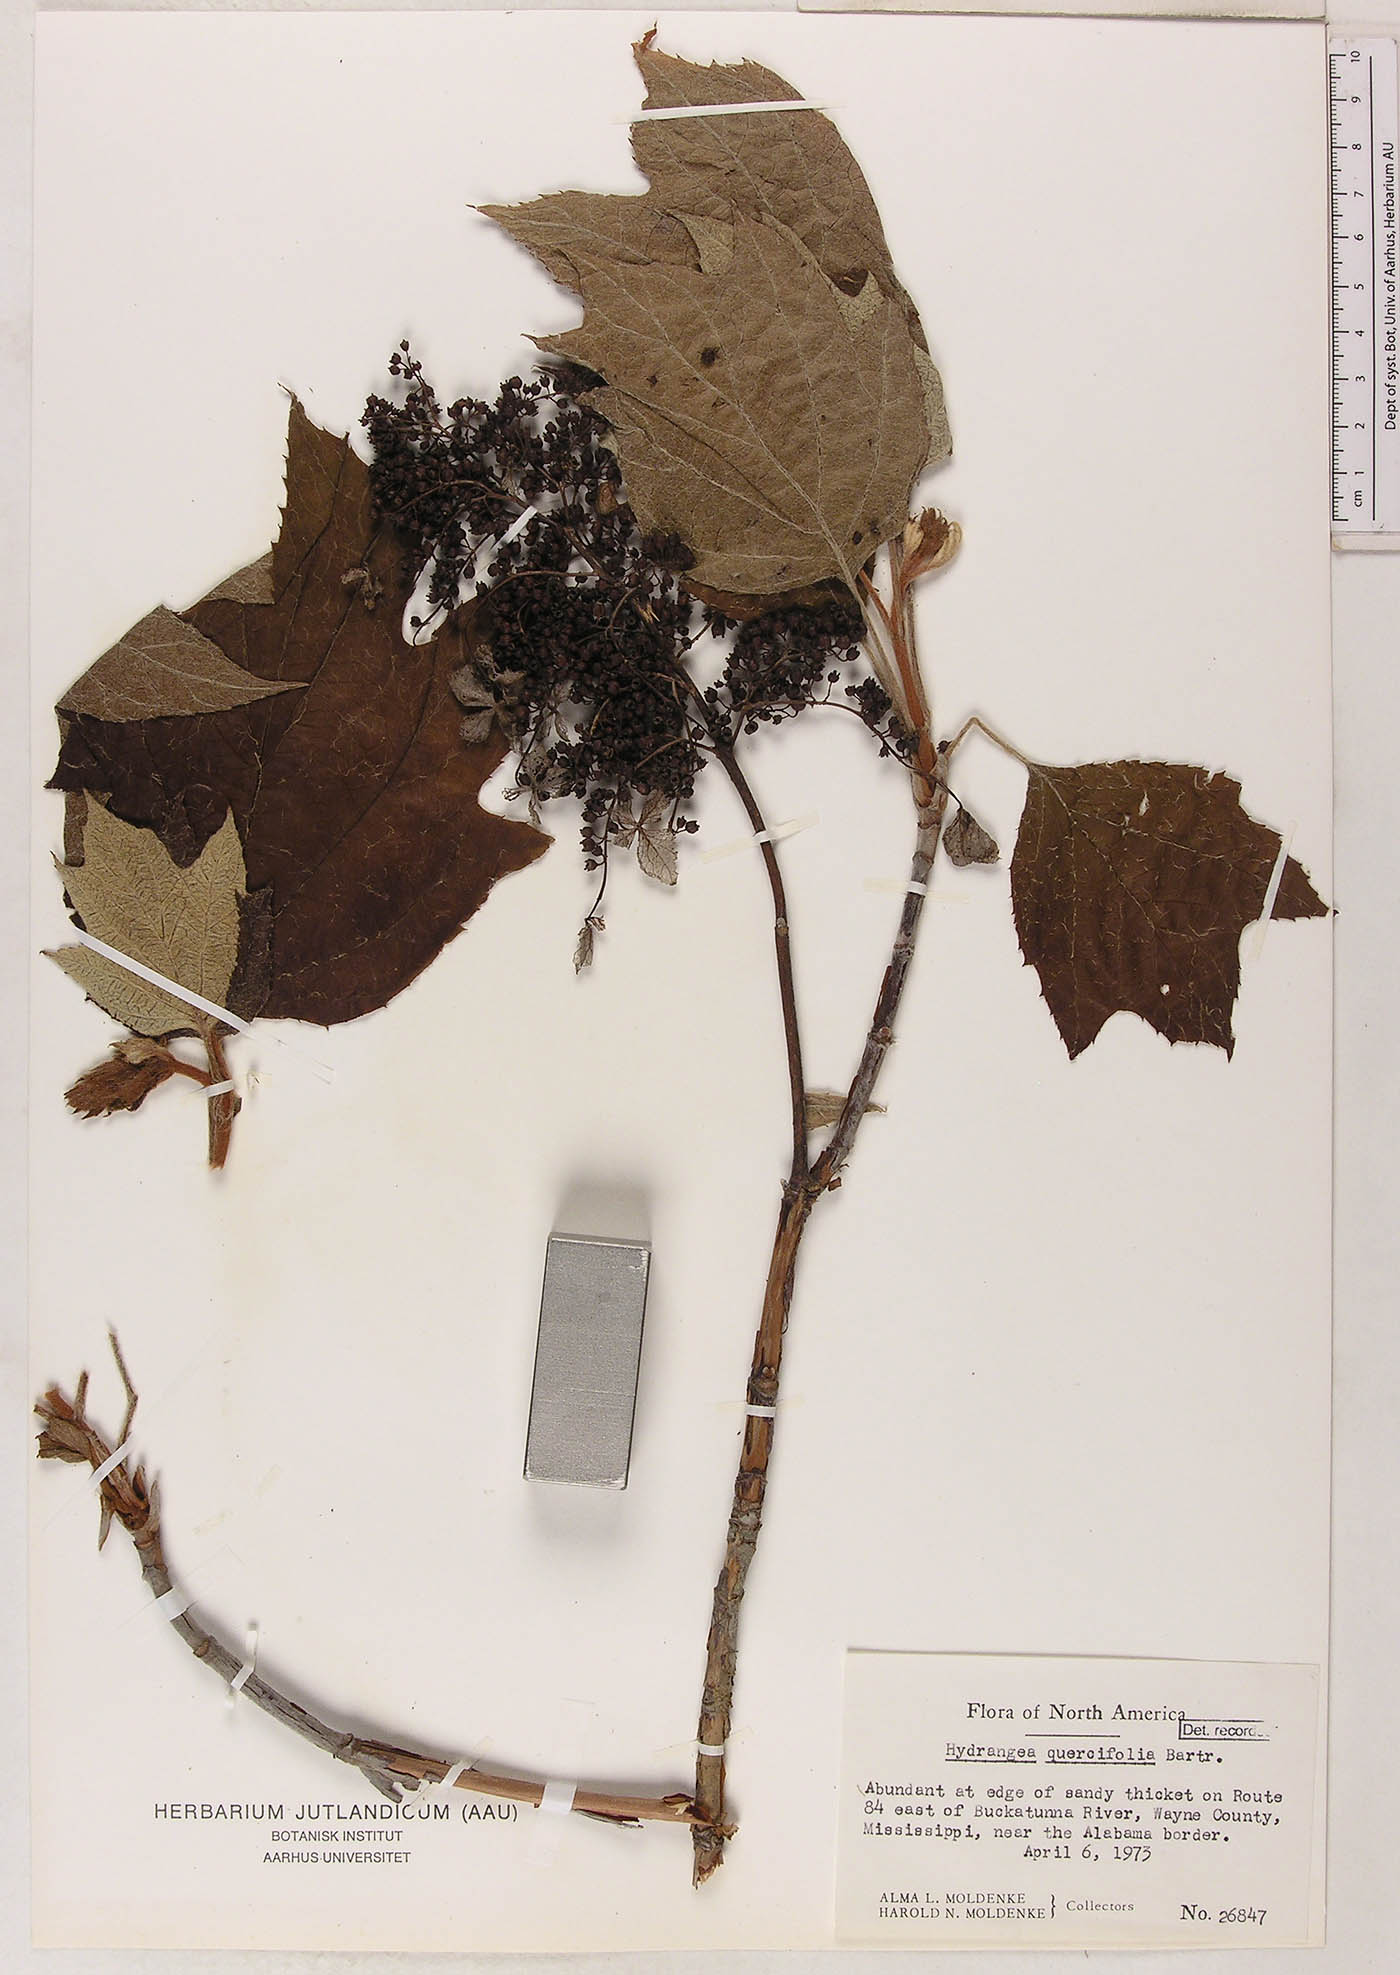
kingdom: Plantae
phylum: Tracheophyta
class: Magnoliopsida
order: Cornales
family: Hydrangeaceae
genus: Hydrangea
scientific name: Hydrangea quercifolia
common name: Oak-leaf hydrangea
